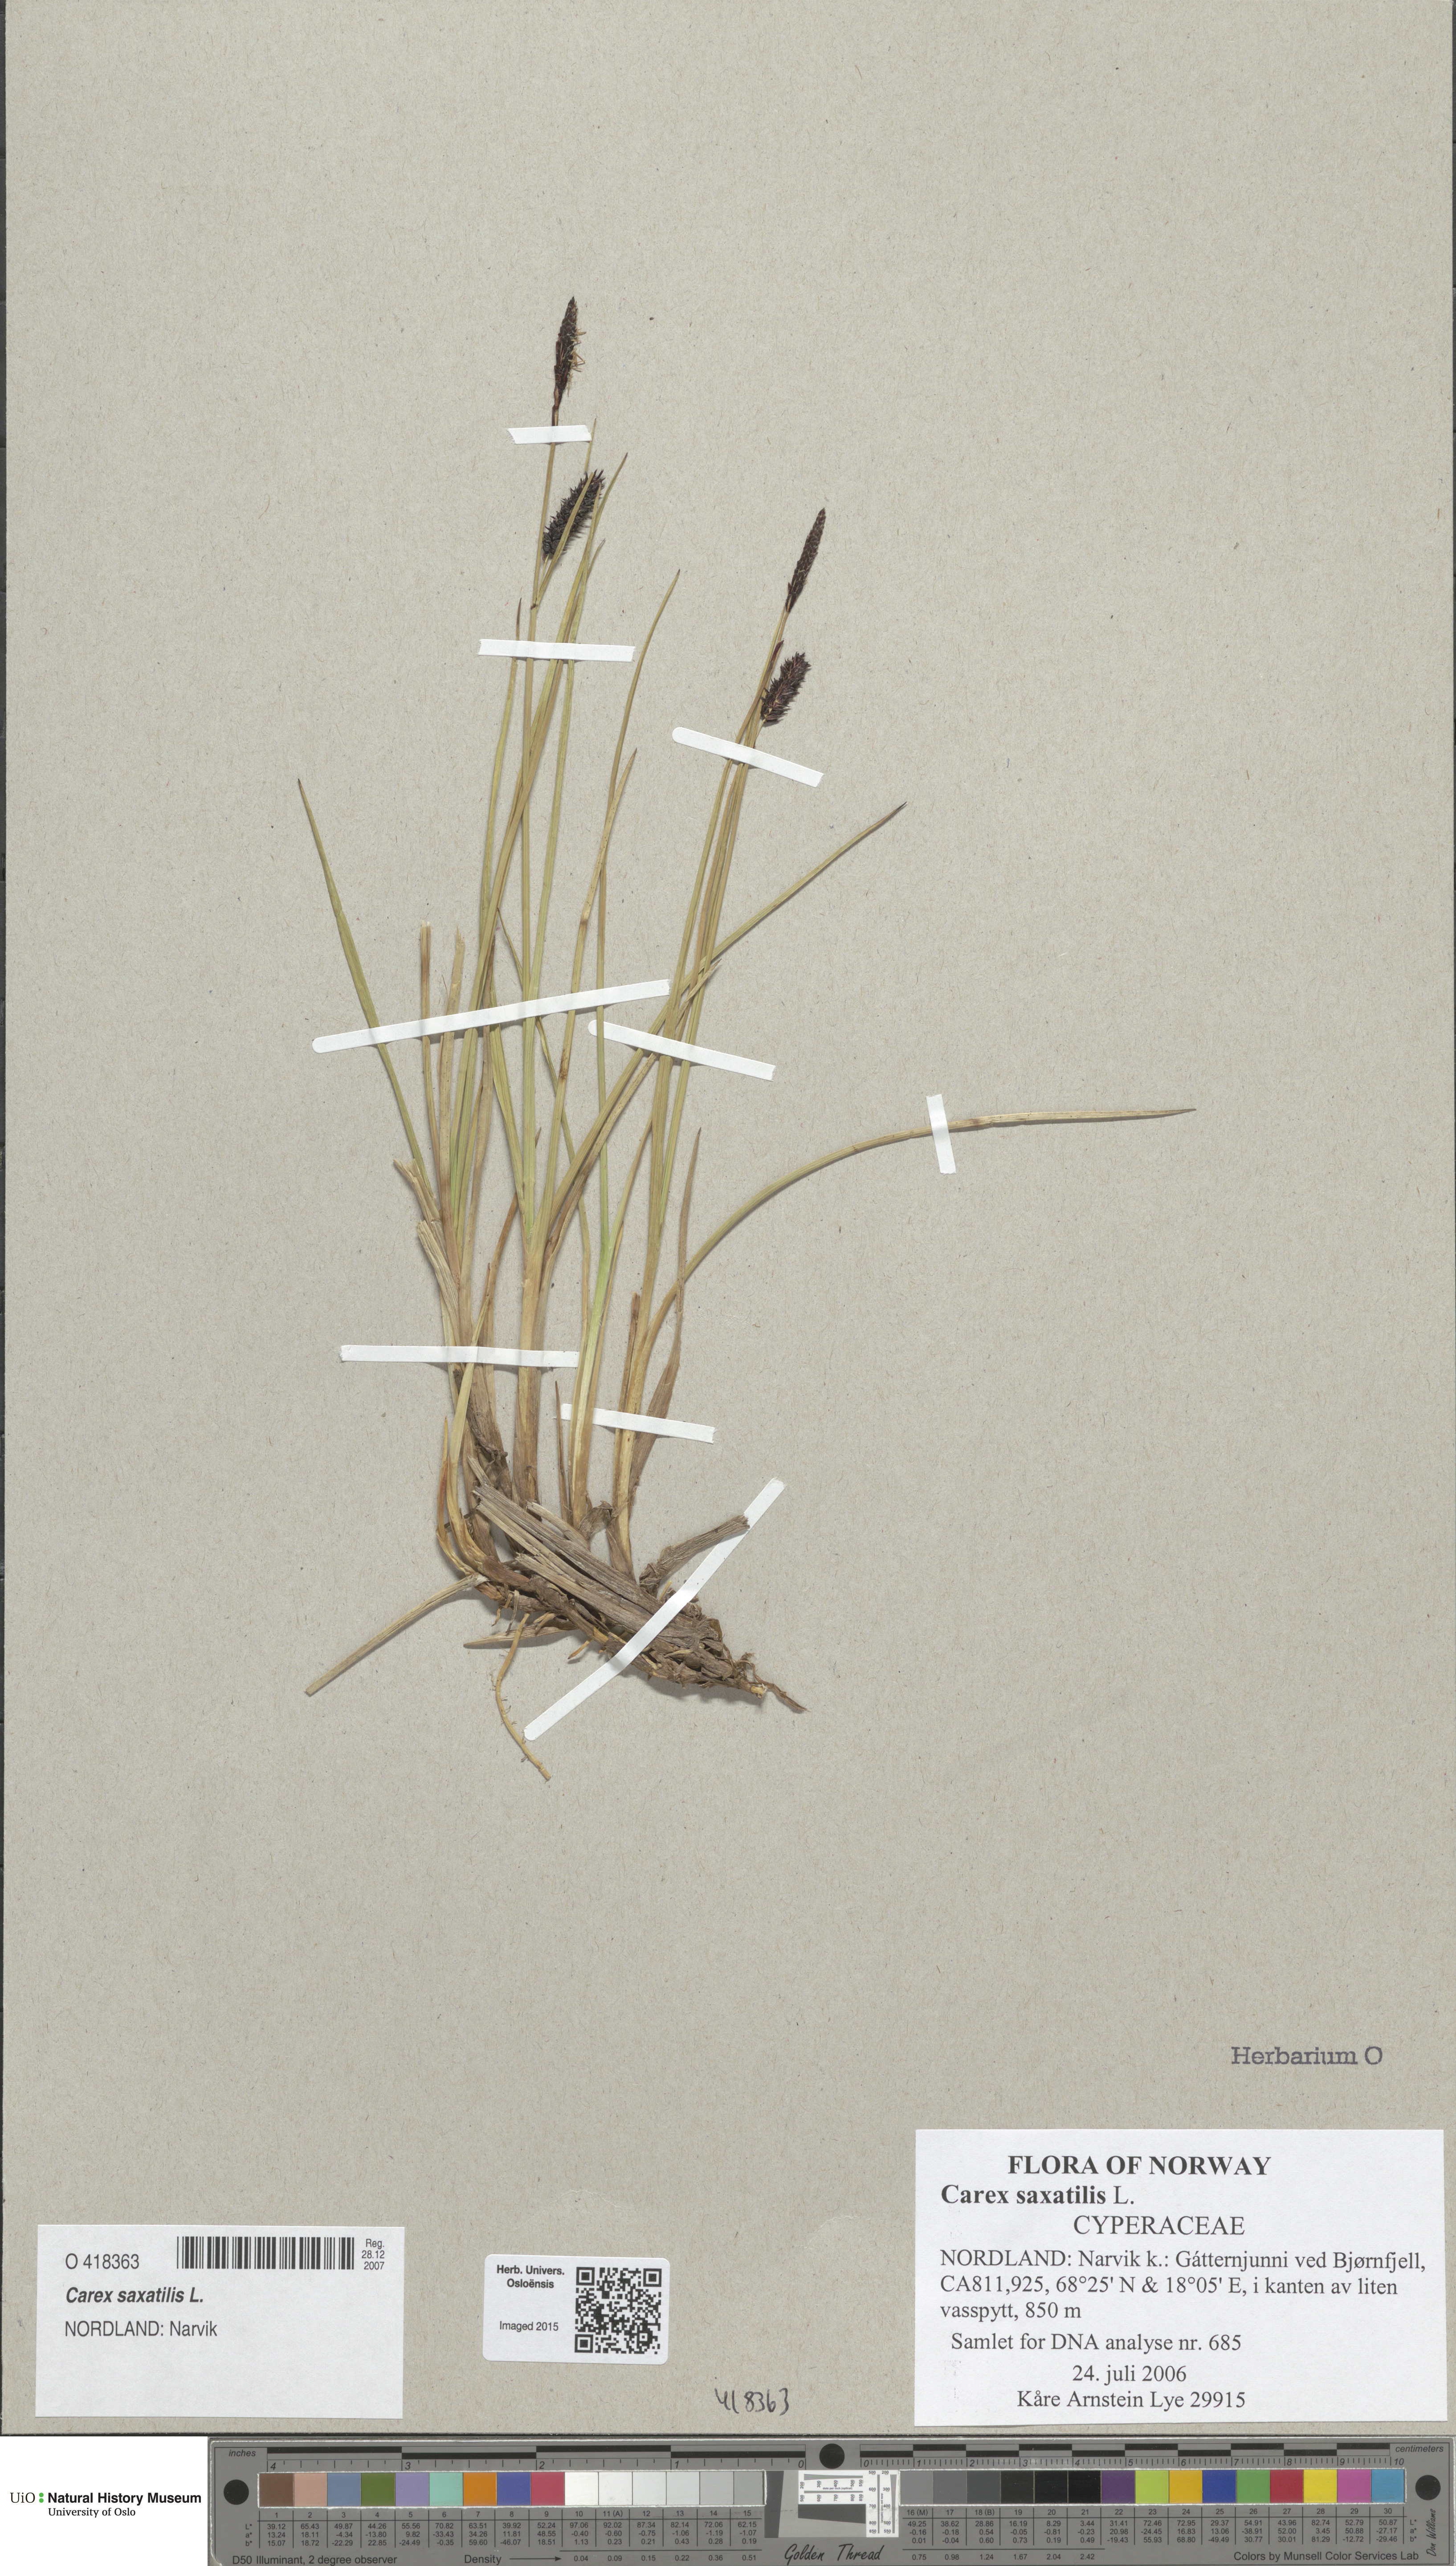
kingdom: Plantae
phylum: Tracheophyta
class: Liliopsida
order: Poales
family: Cyperaceae
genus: Carex
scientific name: Carex saxatilis
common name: Russet sedge
